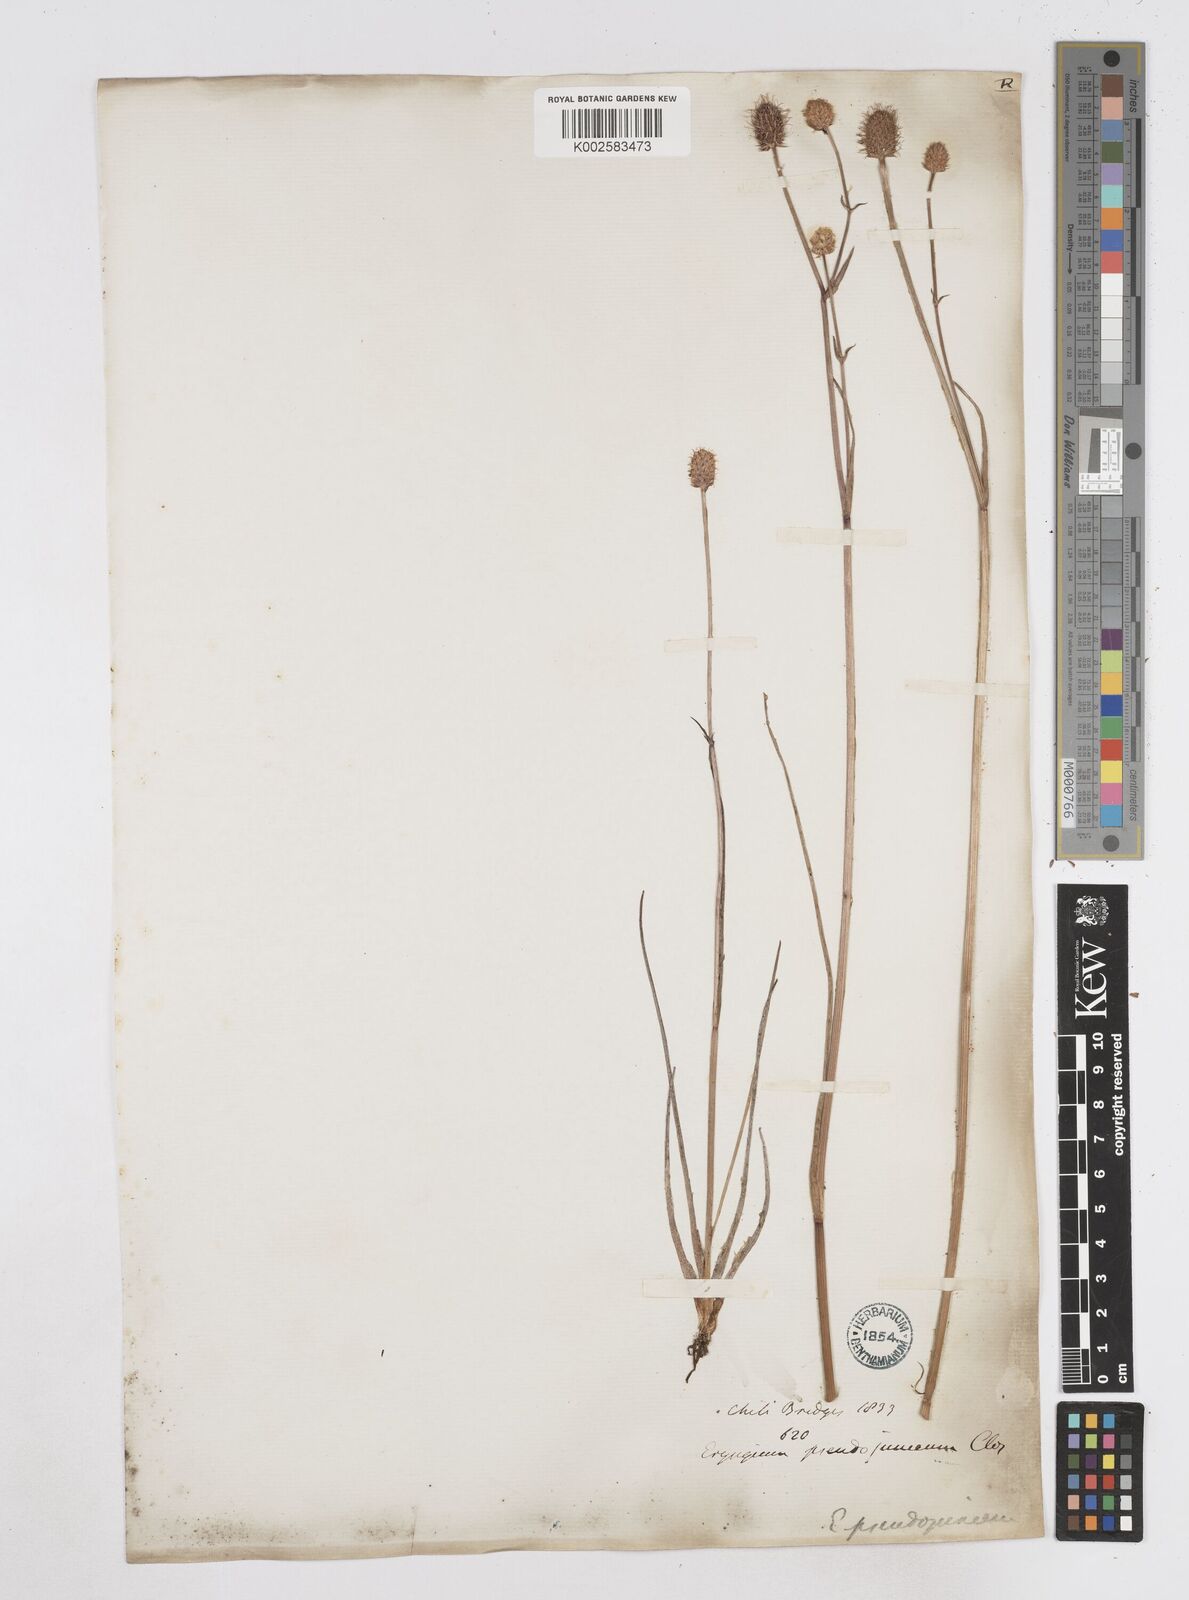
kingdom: Plantae
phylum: Tracheophyta
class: Magnoliopsida
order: Apiales
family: Apiaceae
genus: Eryngium
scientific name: Eryngium pseudojunceum
